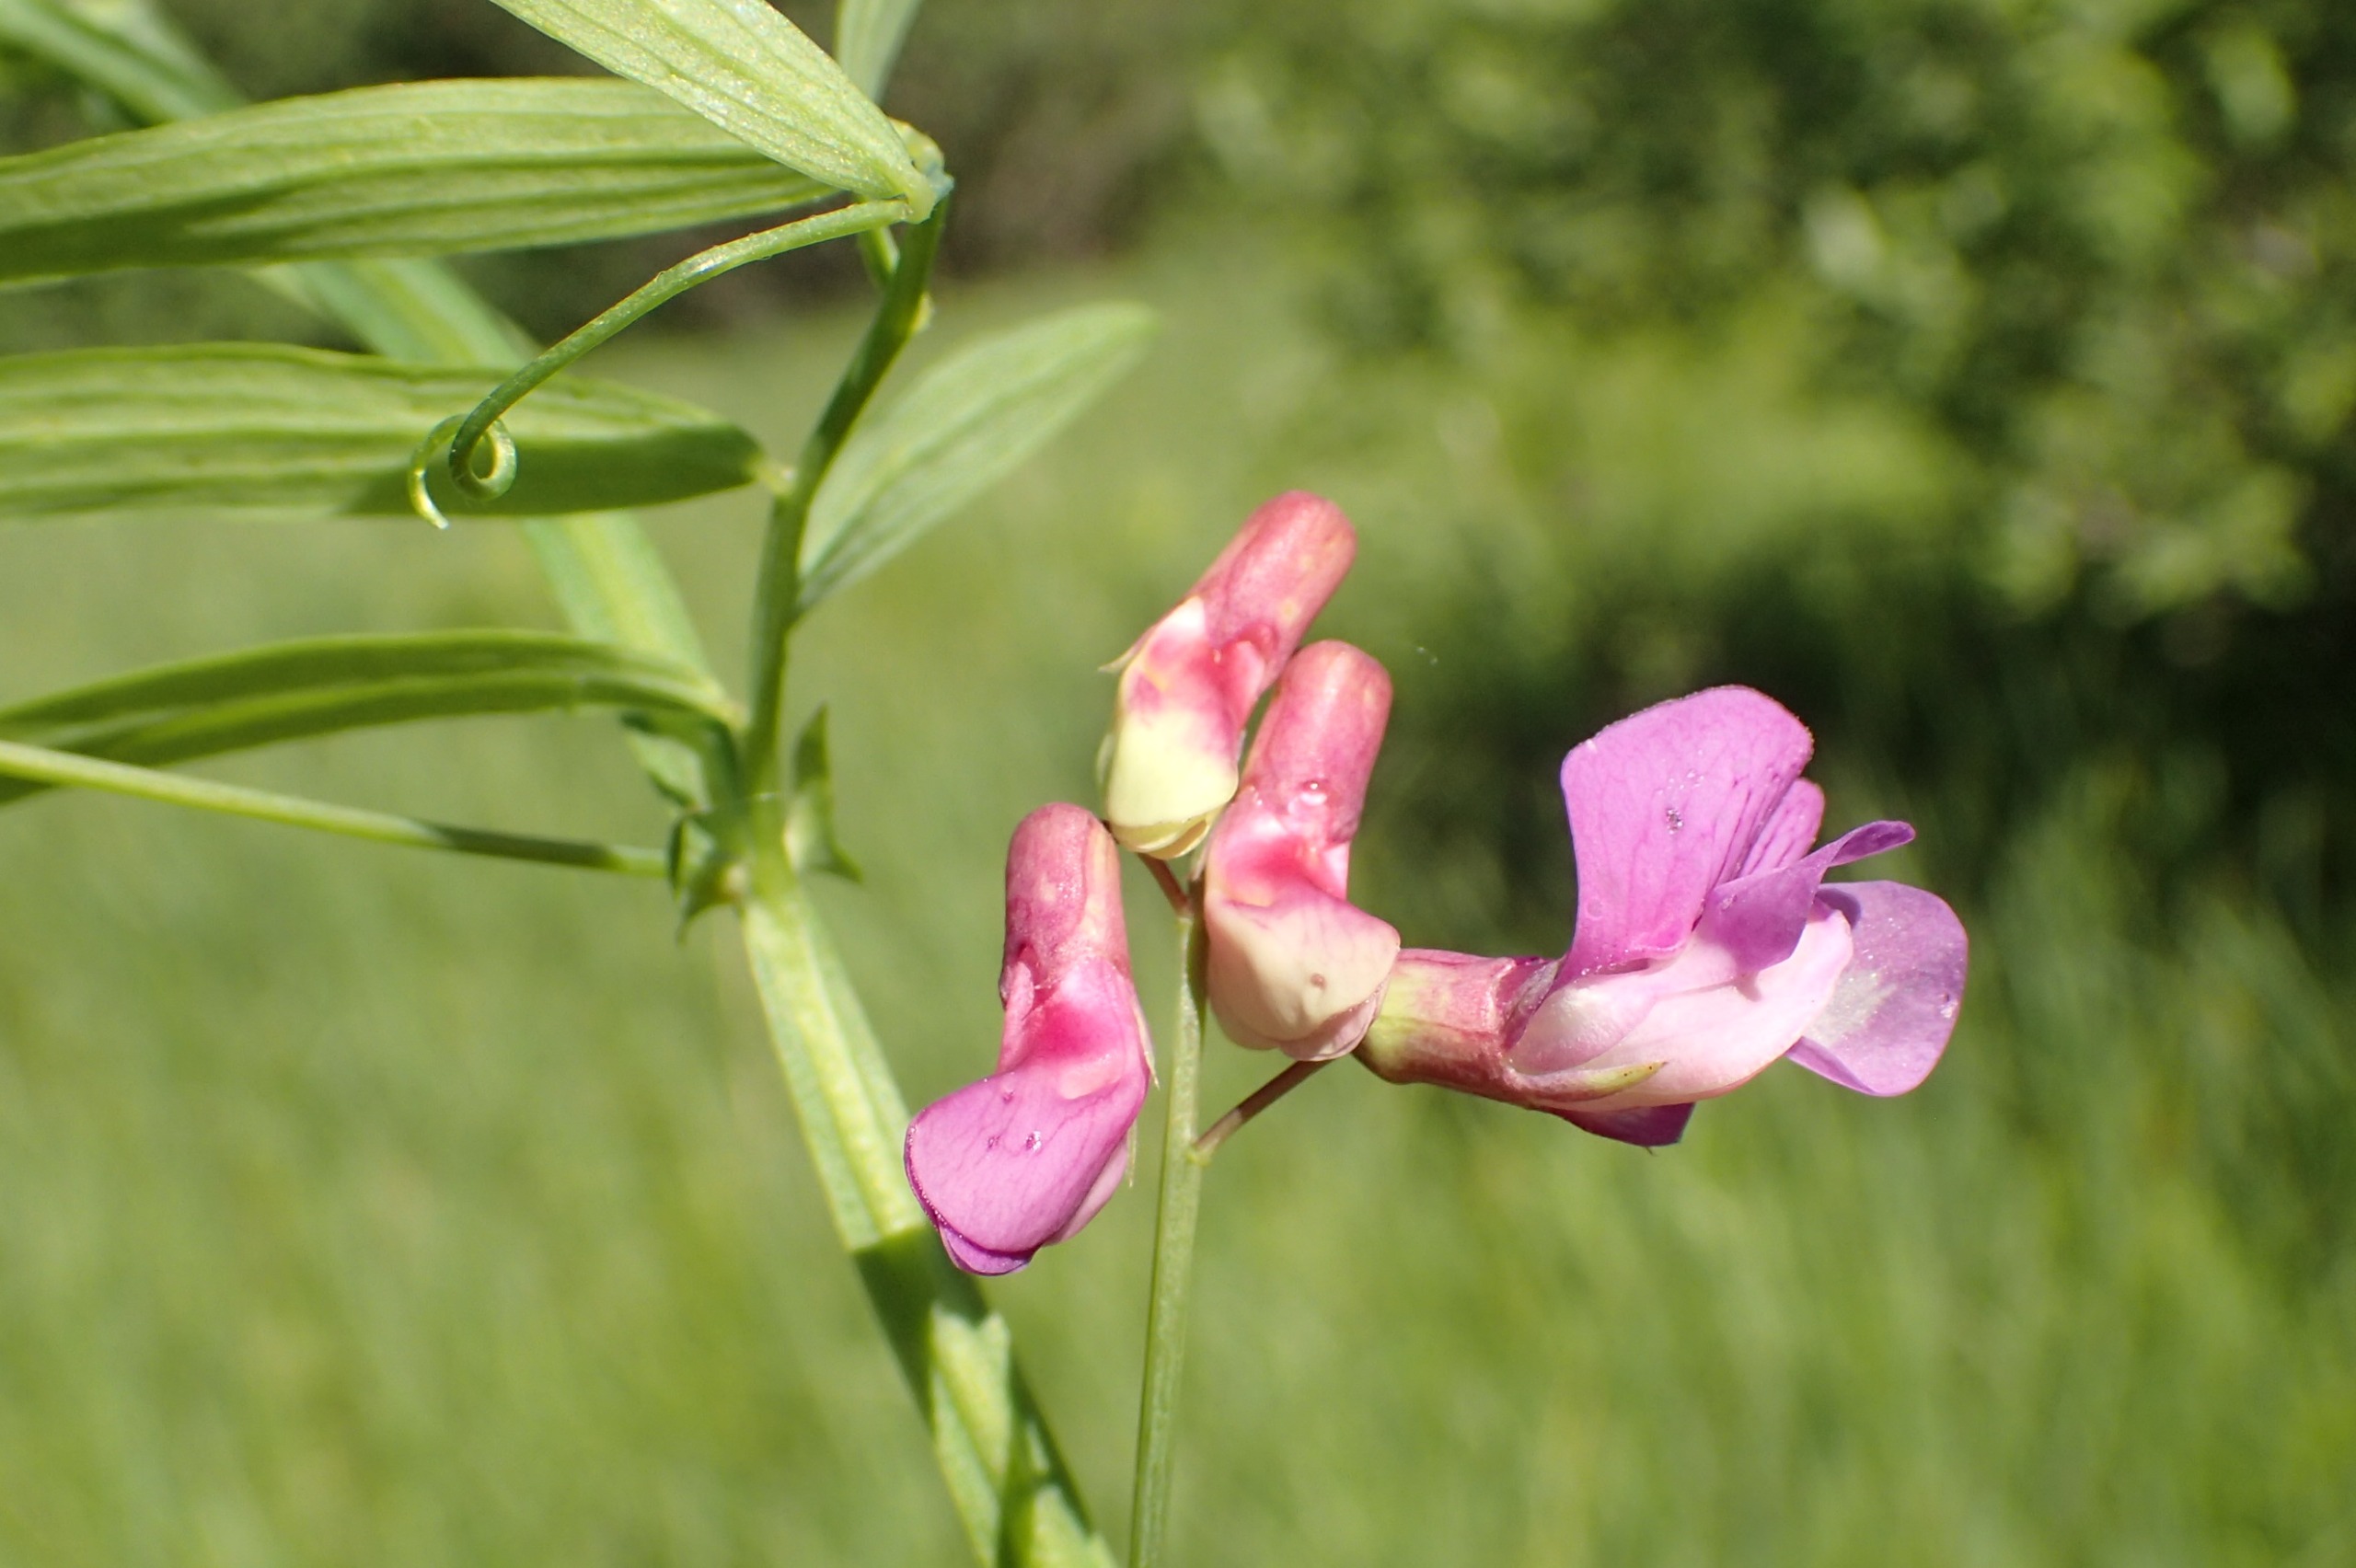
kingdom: Plantae
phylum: Tracheophyta
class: Magnoliopsida
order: Fabales
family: Fabaceae
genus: Lathyrus
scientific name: Lathyrus palustris
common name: Kær-fladbælg
